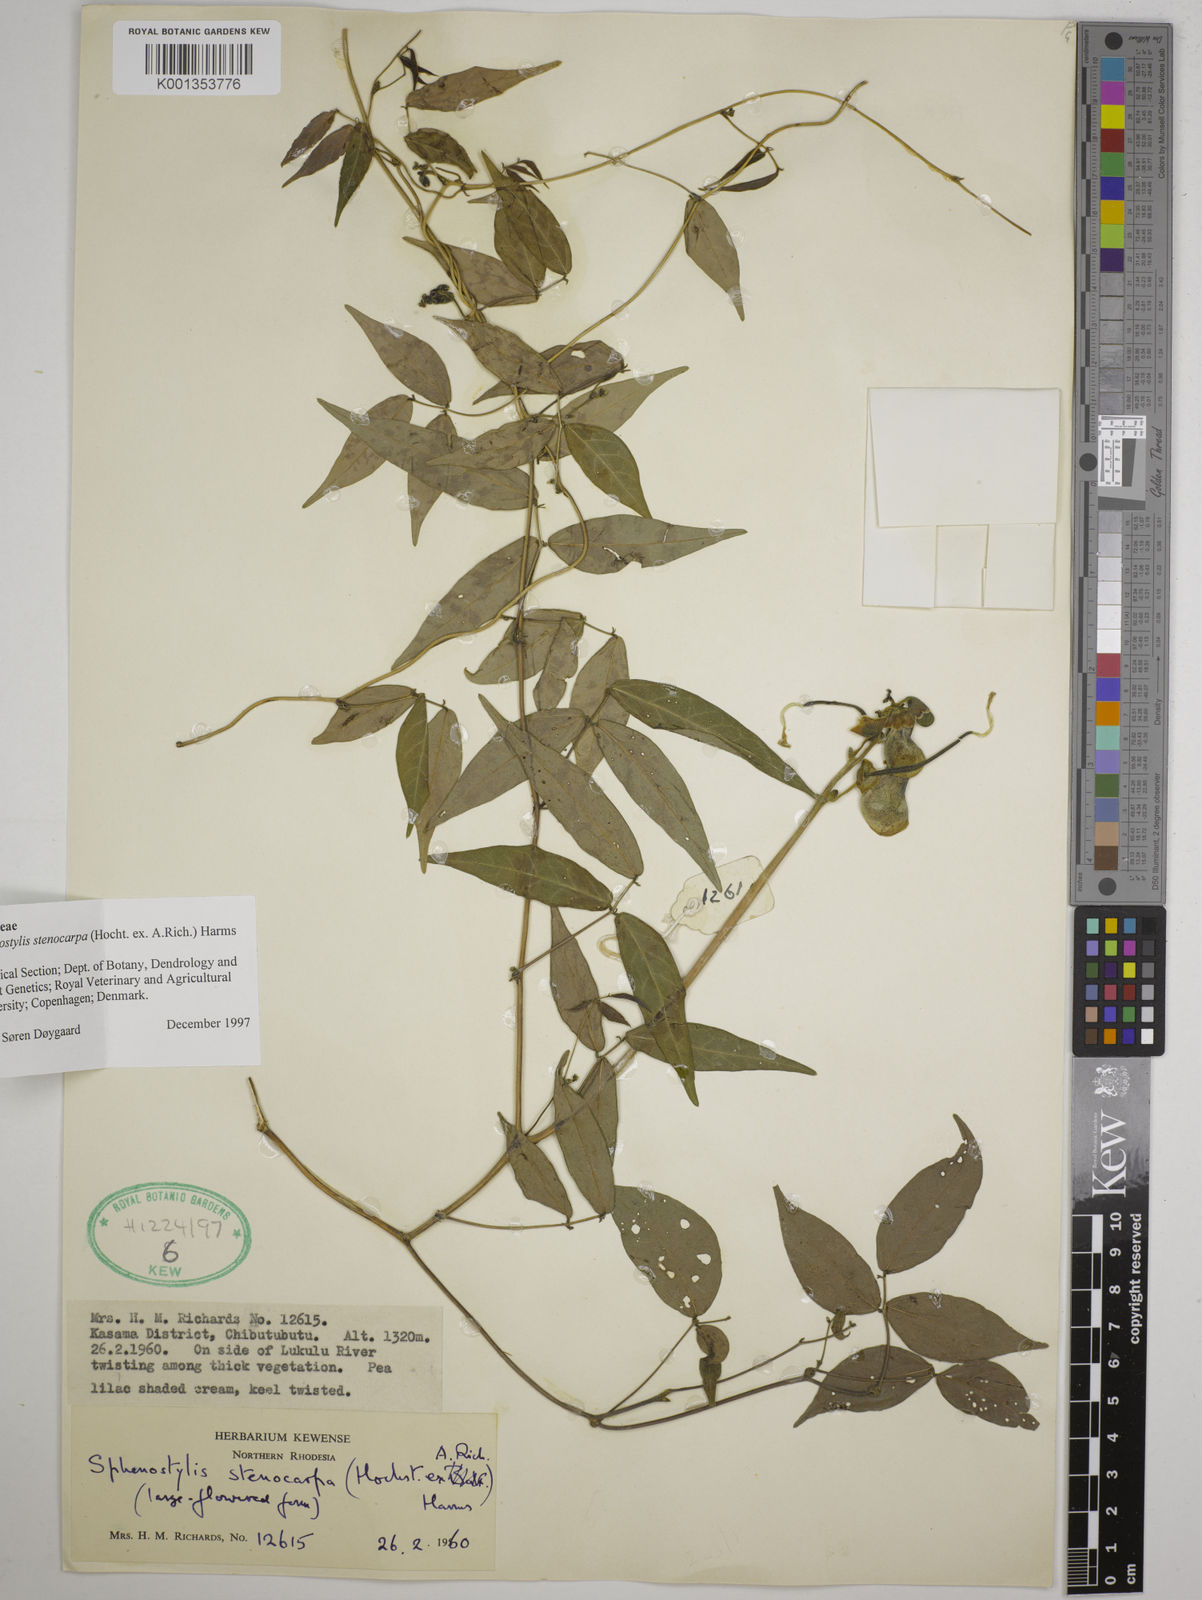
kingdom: Plantae
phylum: Tracheophyta
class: Magnoliopsida
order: Fabales
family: Fabaceae
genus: Sphenostylis
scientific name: Sphenostylis stenocarpa
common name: Yam-pea
